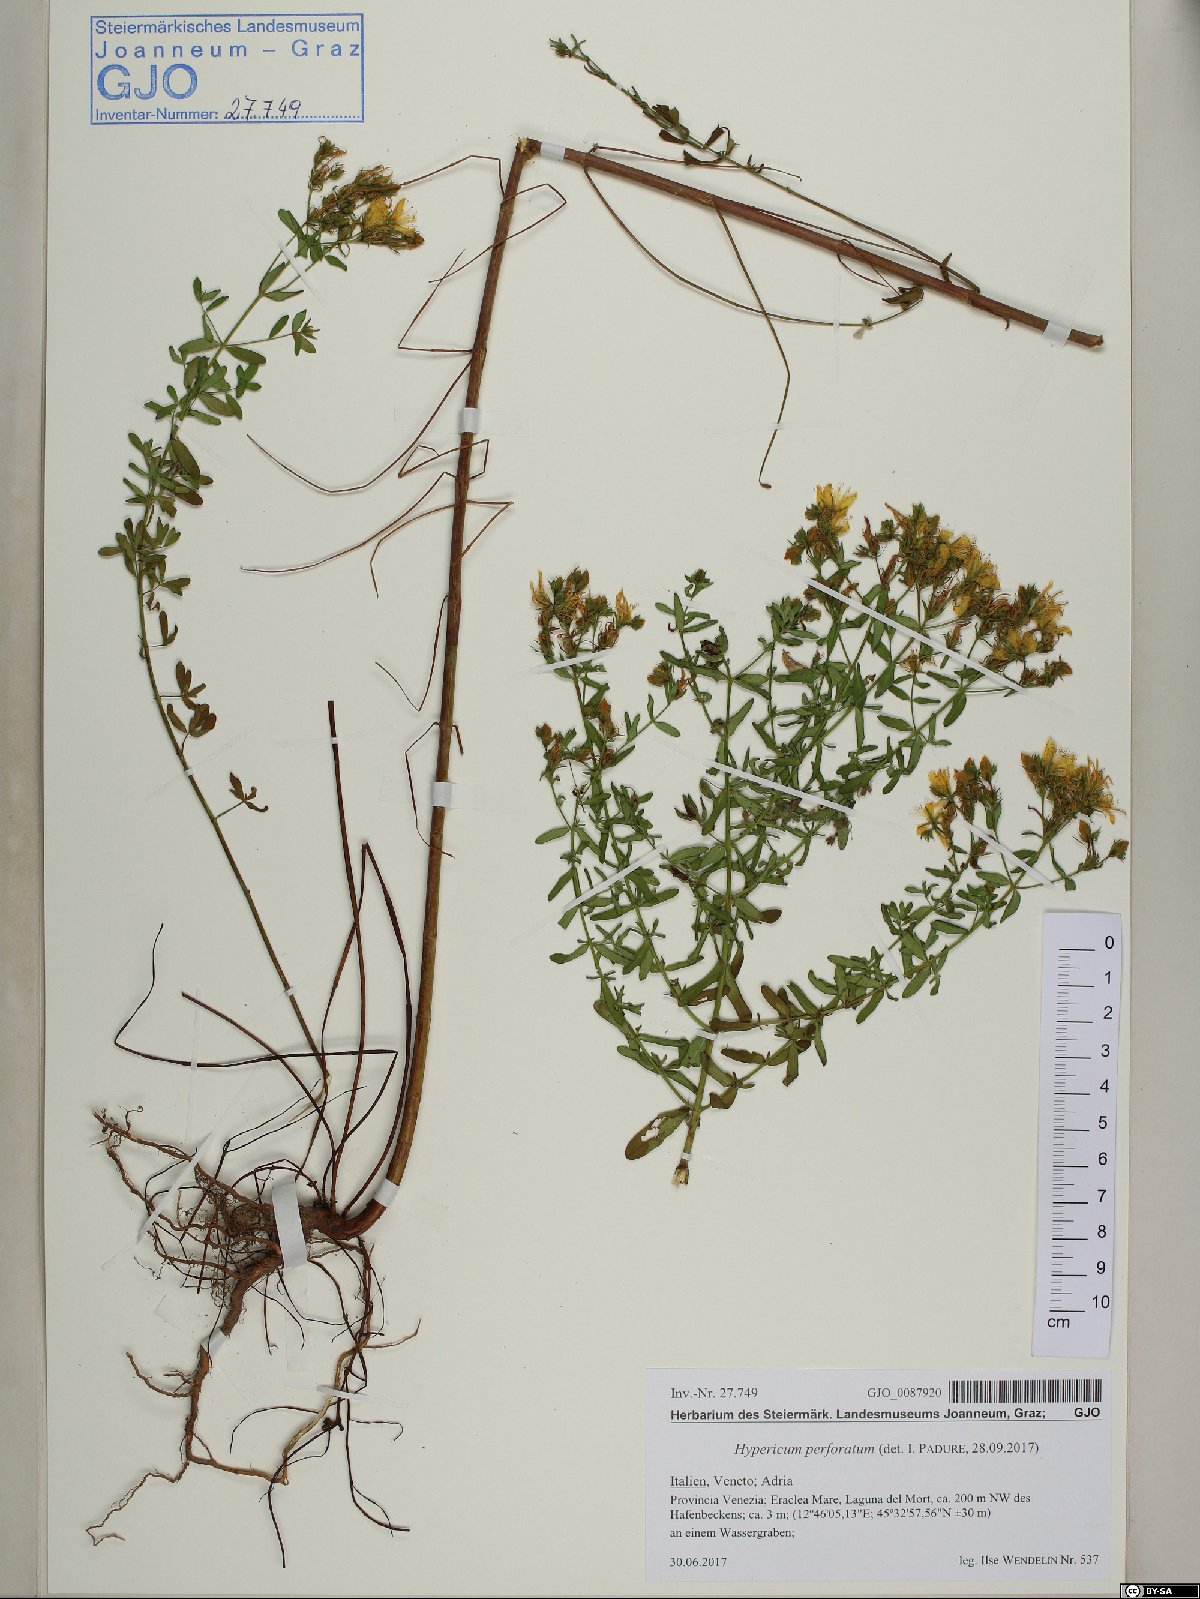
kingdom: Plantae
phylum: Tracheophyta
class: Magnoliopsida
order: Malpighiales
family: Hypericaceae
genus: Hypericum
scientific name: Hypericum perforatum
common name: Common st. johnswort
